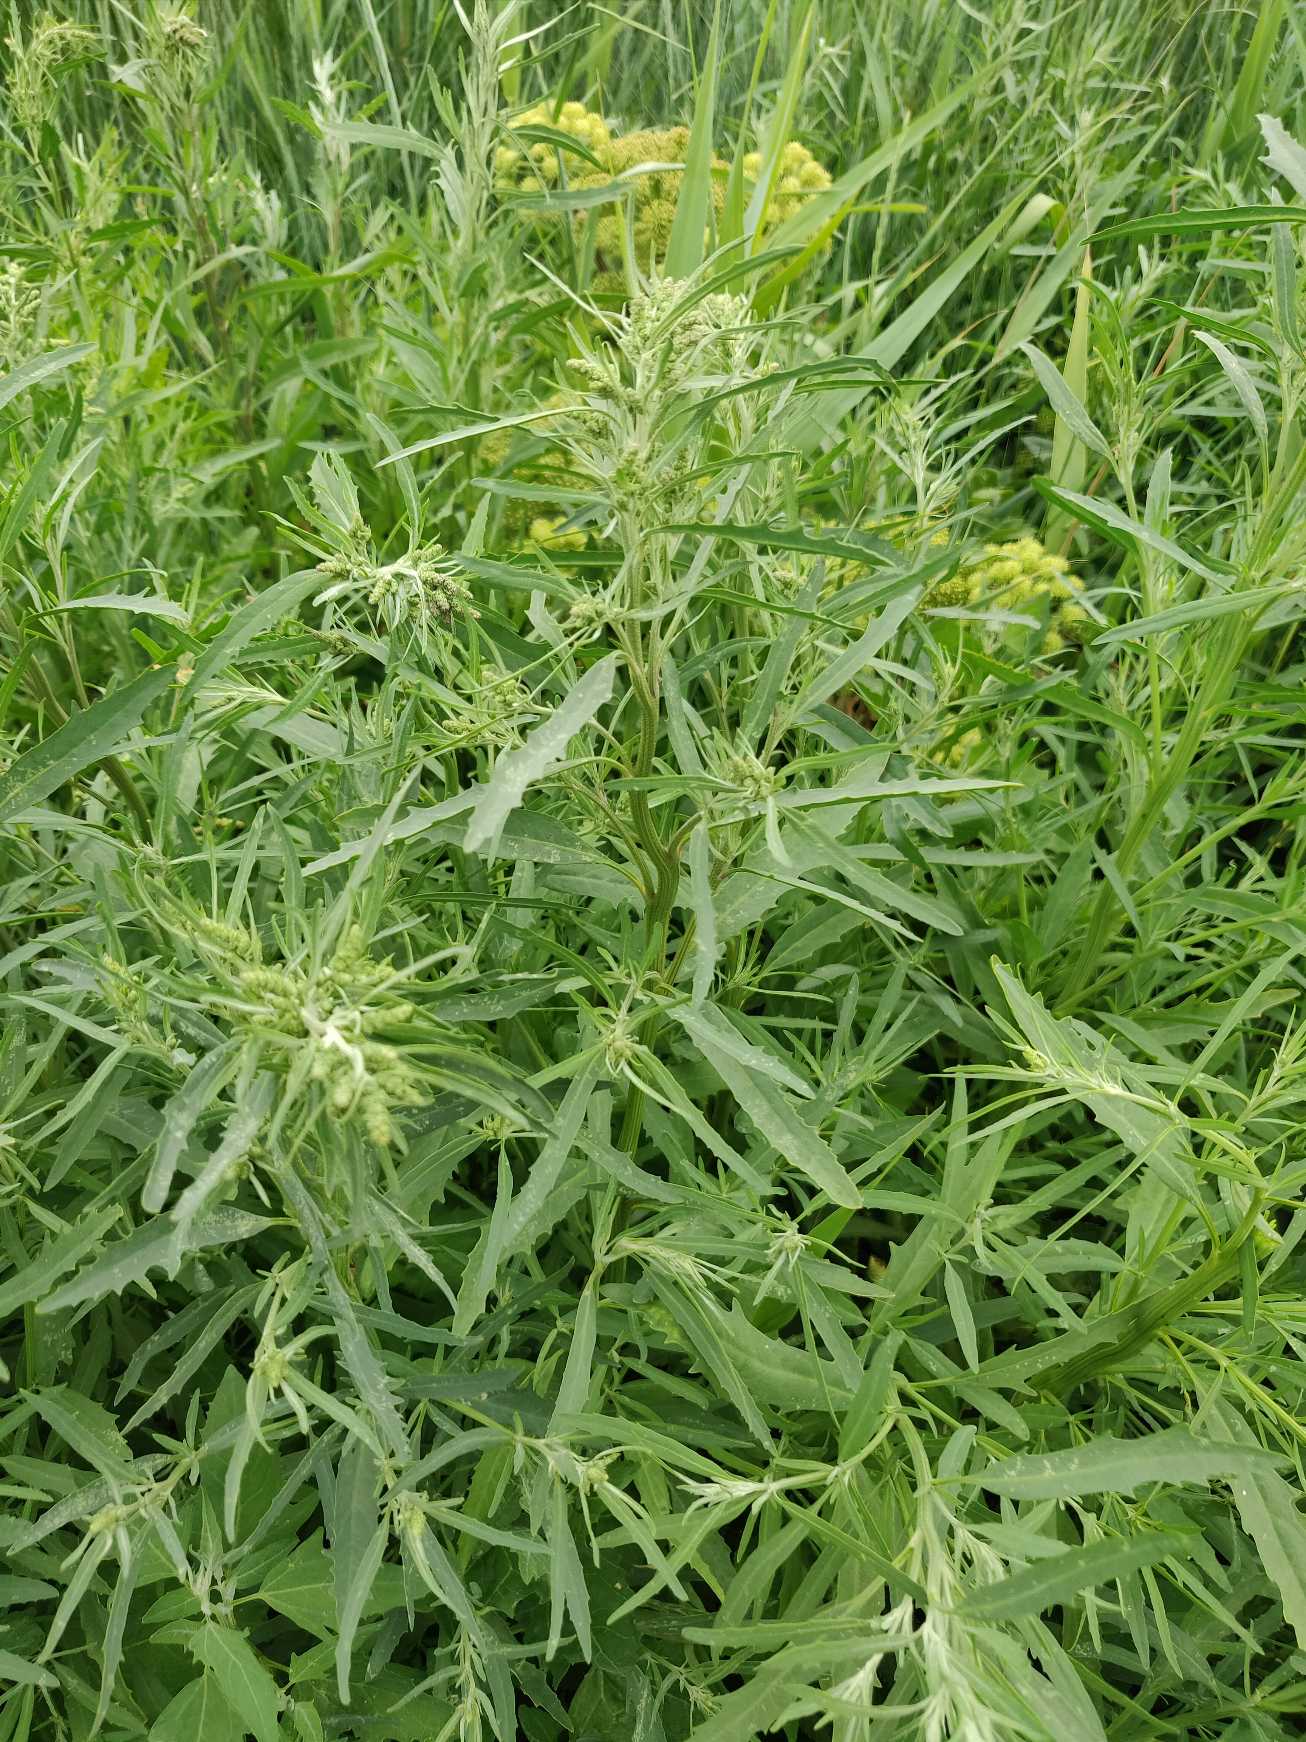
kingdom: Plantae
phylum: Tracheophyta
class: Magnoliopsida
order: Caryophyllales
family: Amaranthaceae
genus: Atriplex
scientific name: Atriplex littoralis
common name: Strand-mælde
